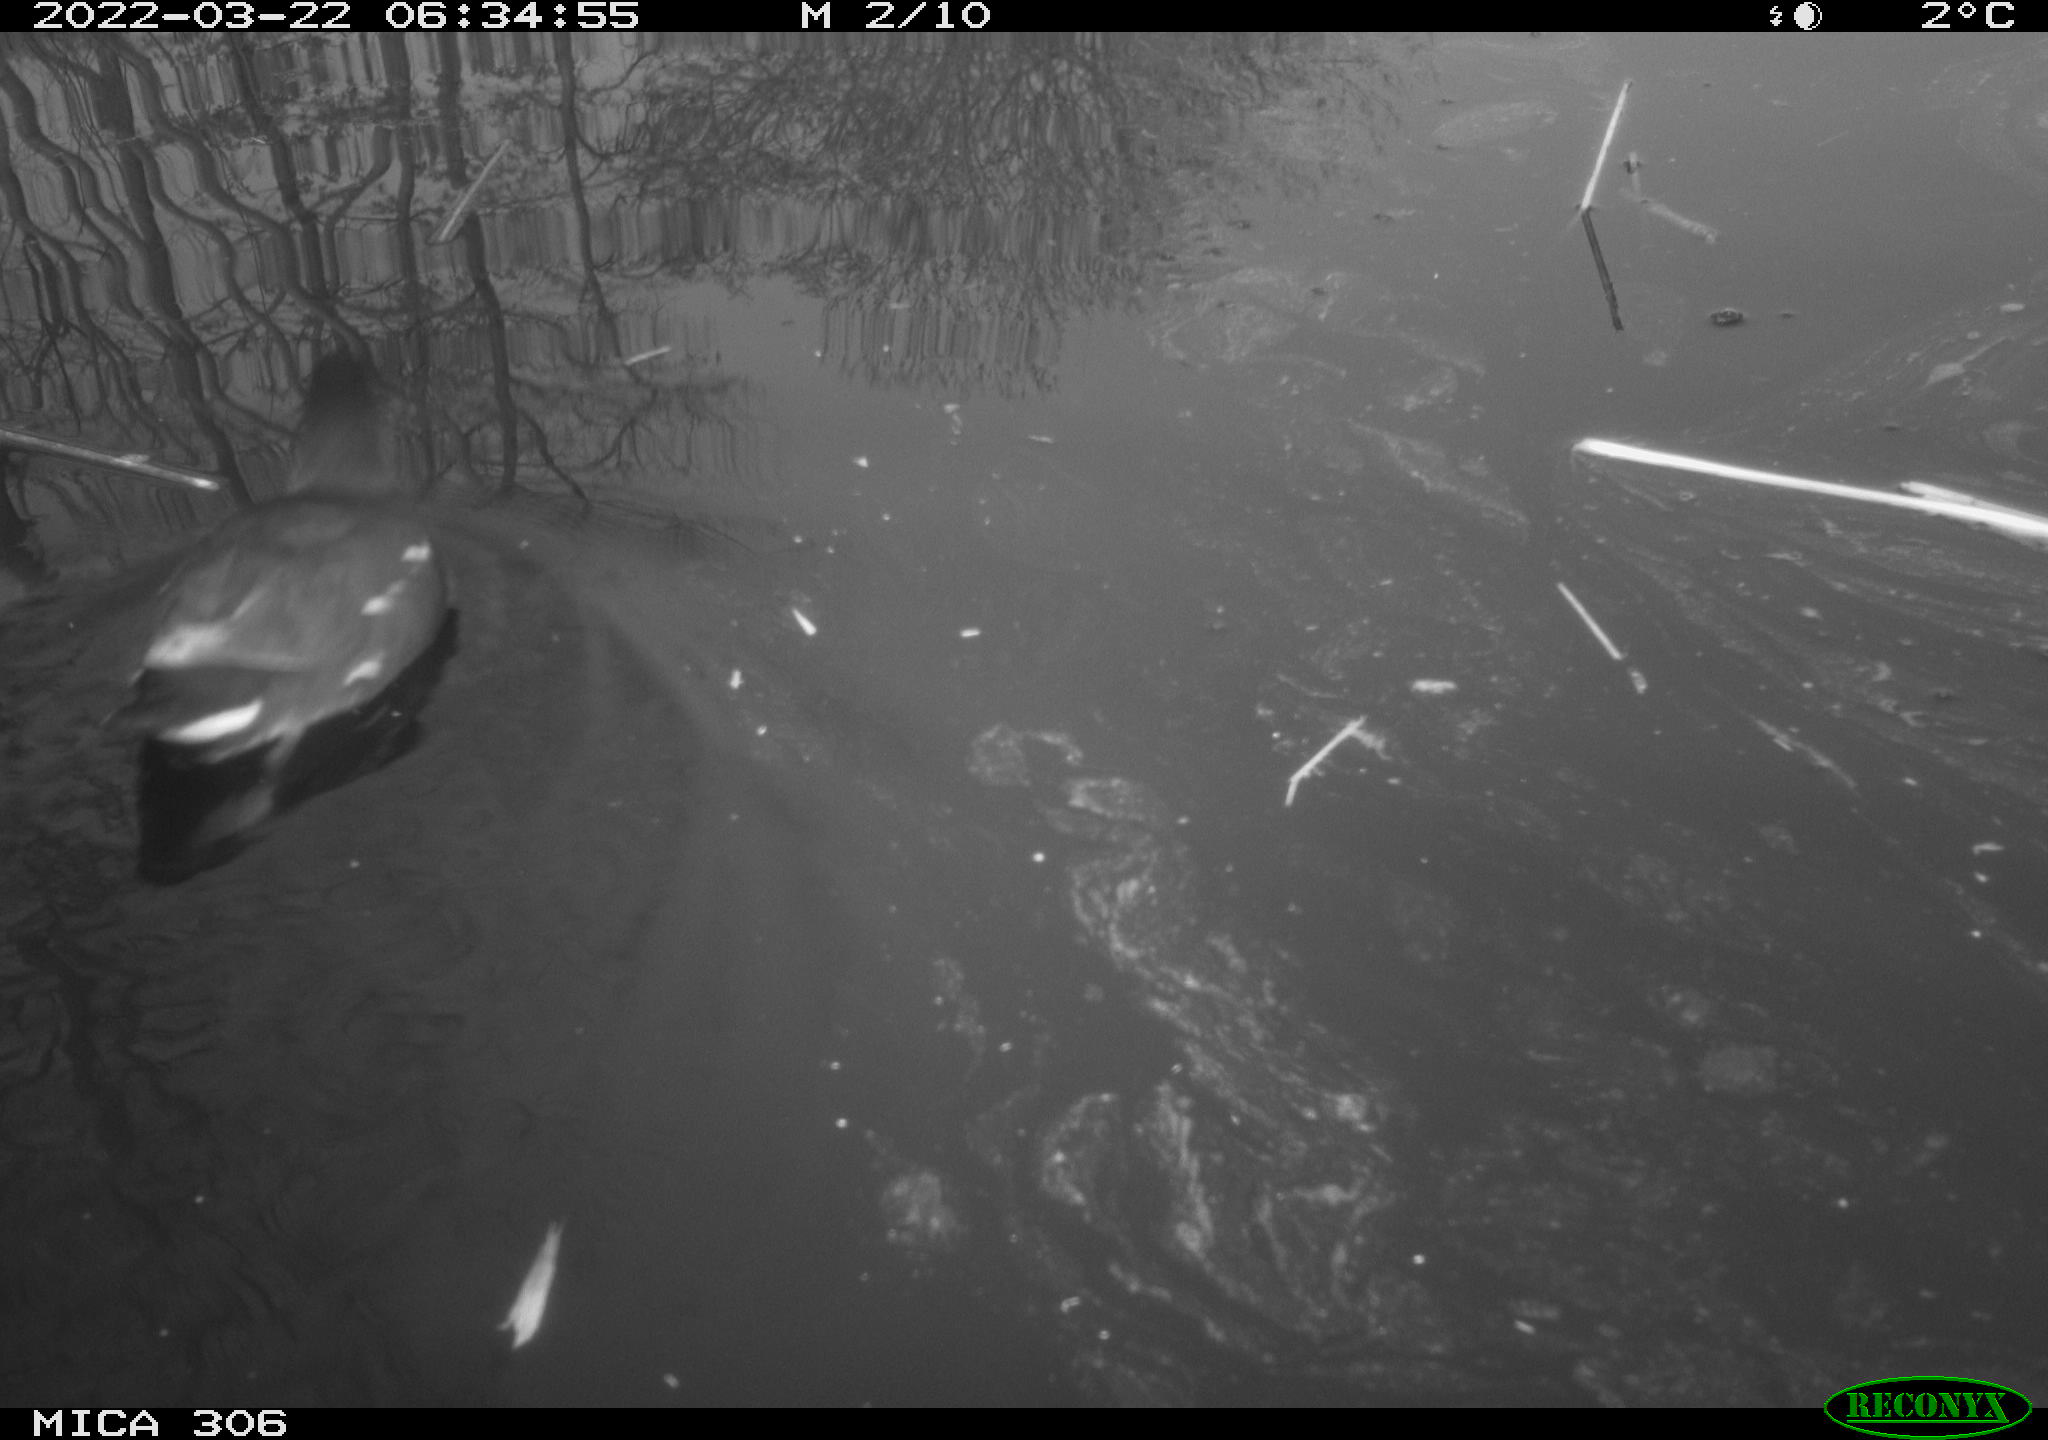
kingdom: Animalia
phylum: Chordata
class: Aves
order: Gruiformes
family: Rallidae
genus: Gallinula
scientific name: Gallinula chloropus
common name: Common moorhen
